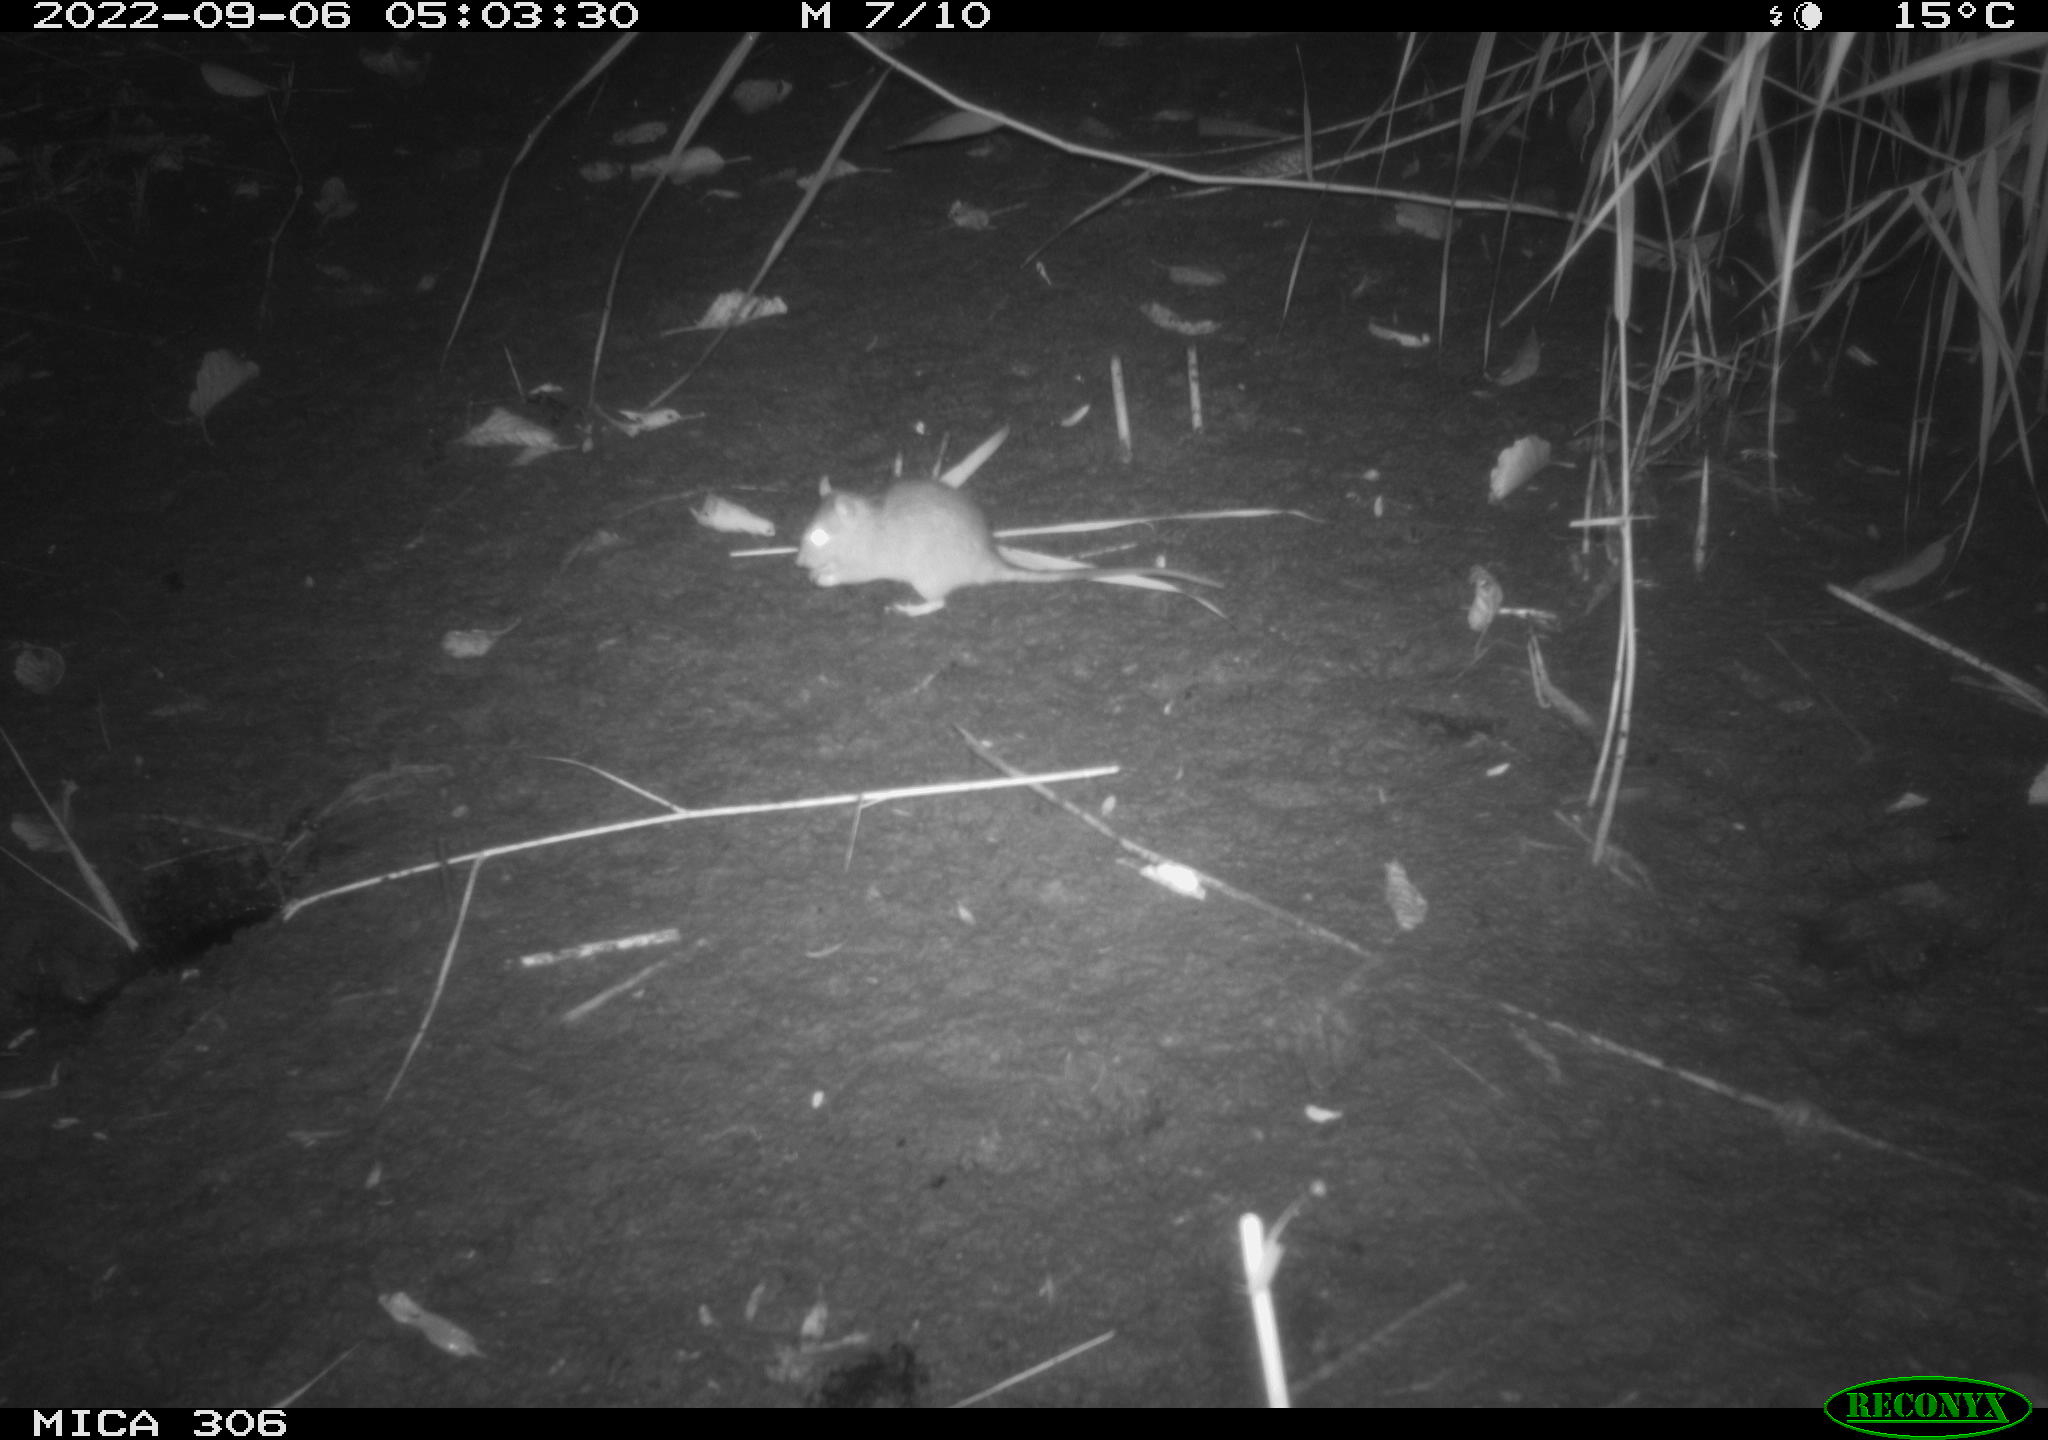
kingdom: Animalia
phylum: Chordata
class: Mammalia
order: Rodentia
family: Muridae
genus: Rattus
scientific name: Rattus norvegicus
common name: Brown rat
